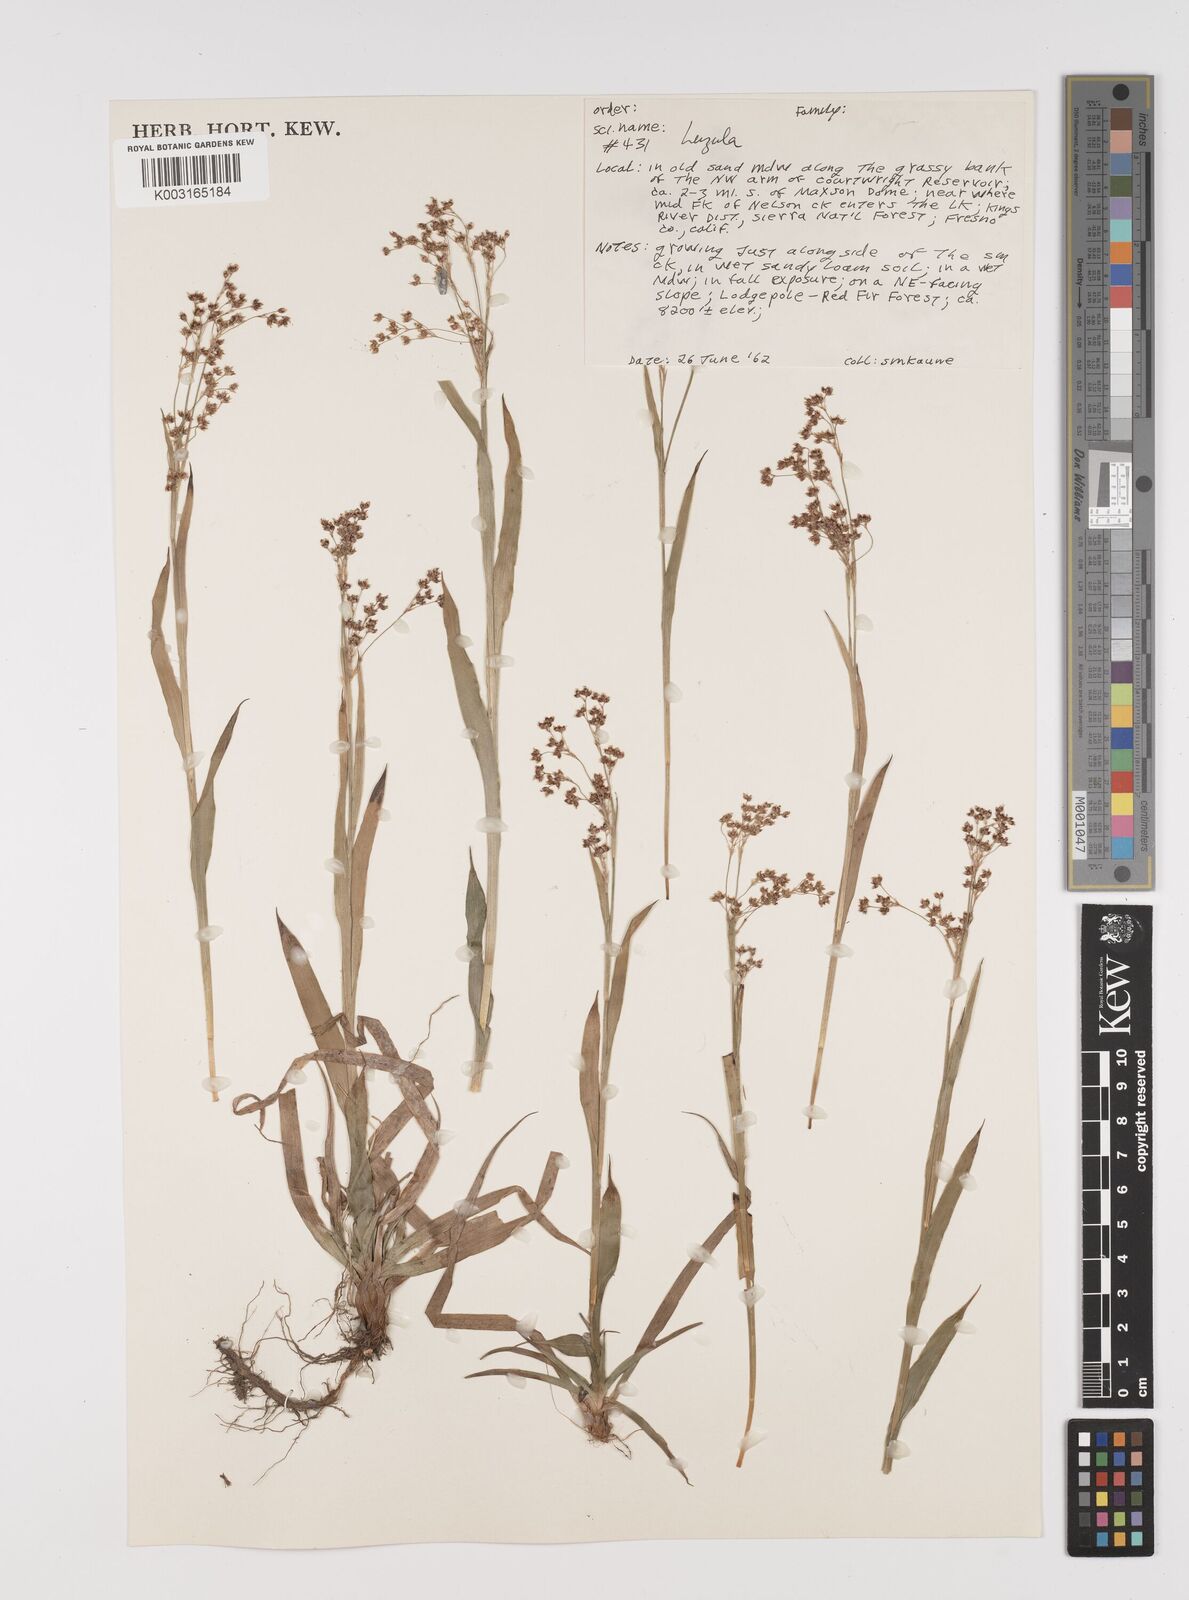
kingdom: Plantae
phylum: Tracheophyta
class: Liliopsida
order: Poales
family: Juncaceae
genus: Luzula
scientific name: Luzula
